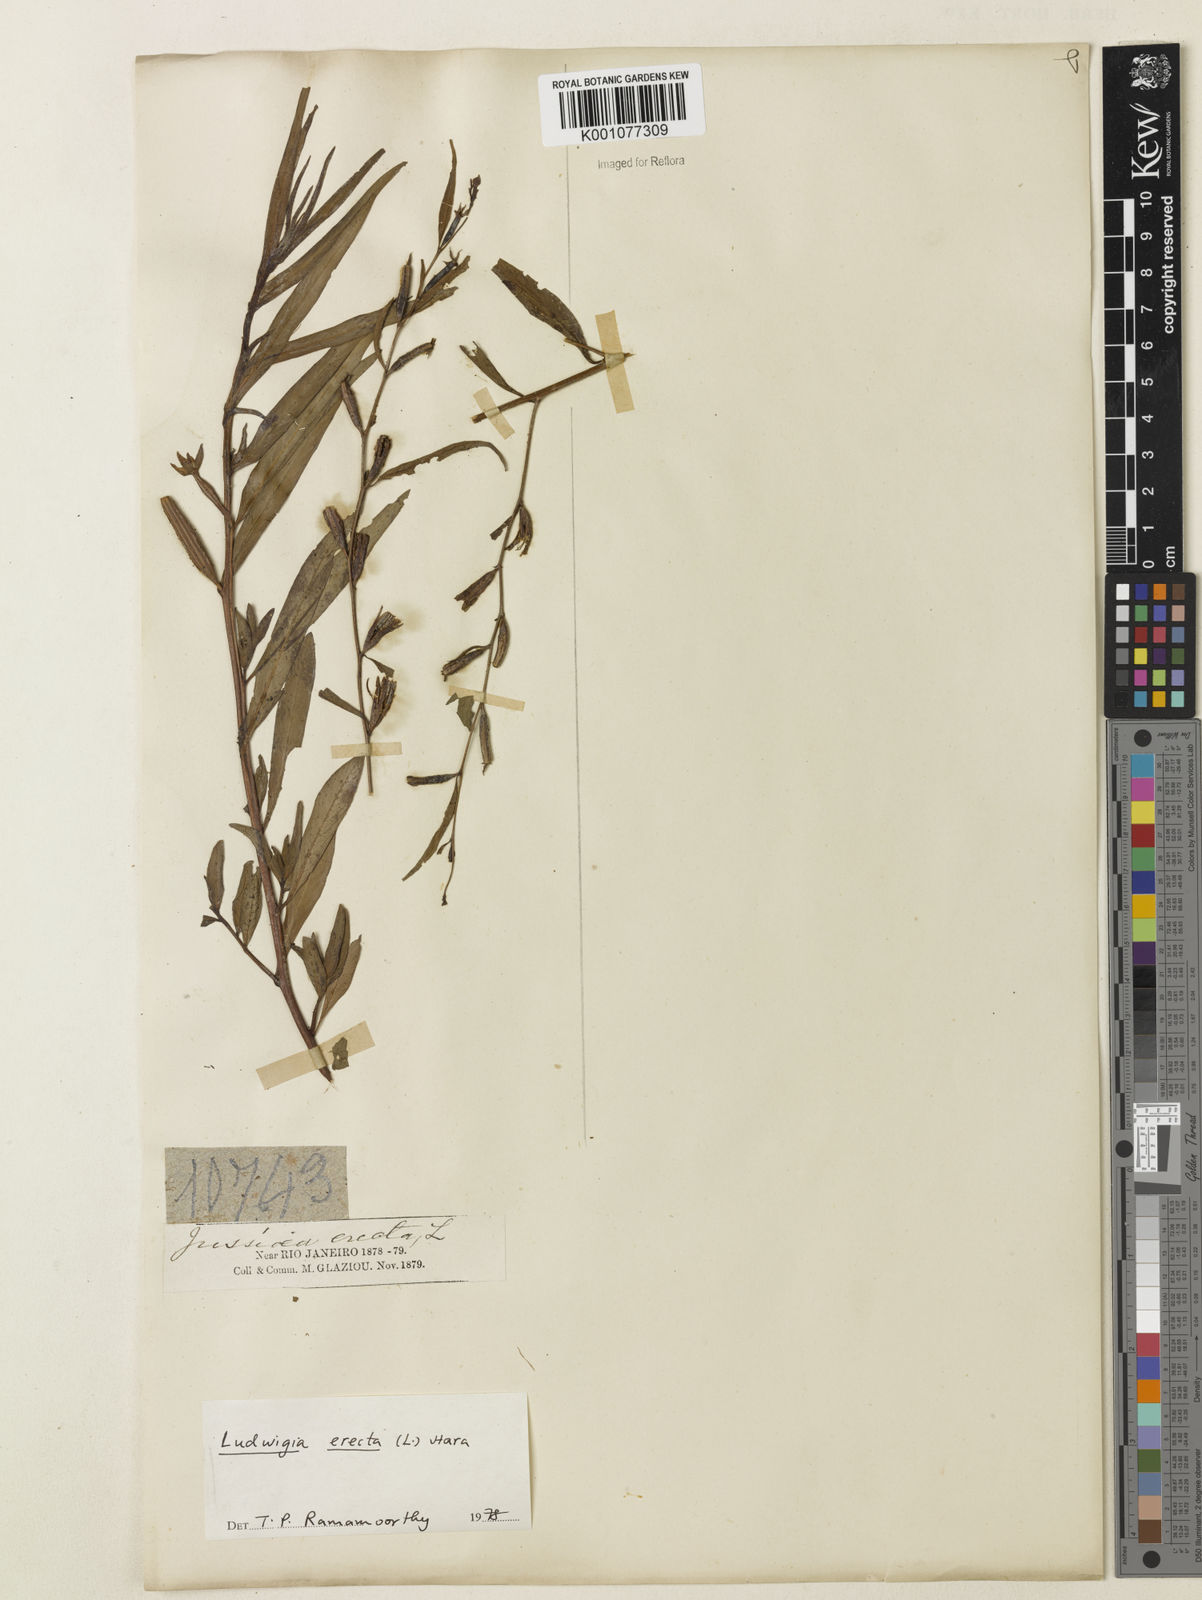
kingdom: Plantae
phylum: Tracheophyta
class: Magnoliopsida
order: Myrtales
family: Onagraceae
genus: Ludwigia
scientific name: Ludwigia erecta
